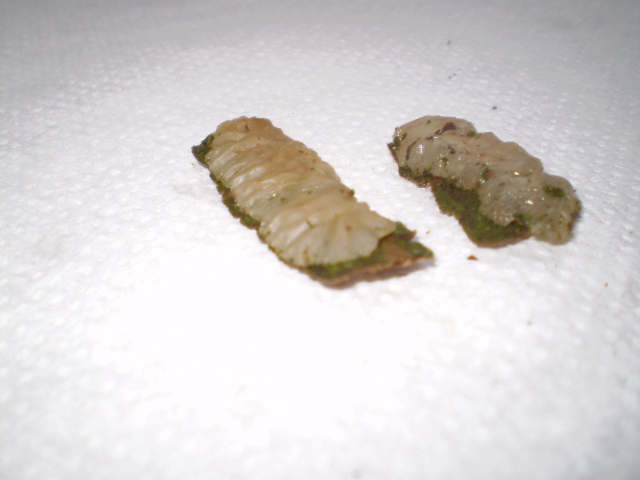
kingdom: Fungi
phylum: Basidiomycota
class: Agaricomycetes
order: Auriculariales
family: Auriculariaceae
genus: Exidia
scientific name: Exidia thuretiana
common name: hvidlig bævretop
